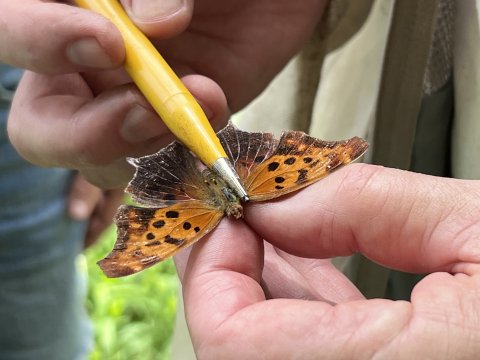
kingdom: Animalia
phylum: Arthropoda
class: Insecta
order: Lepidoptera
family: Nymphalidae
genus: Polygonia
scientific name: Polygonia interrogationis
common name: Question Mark
